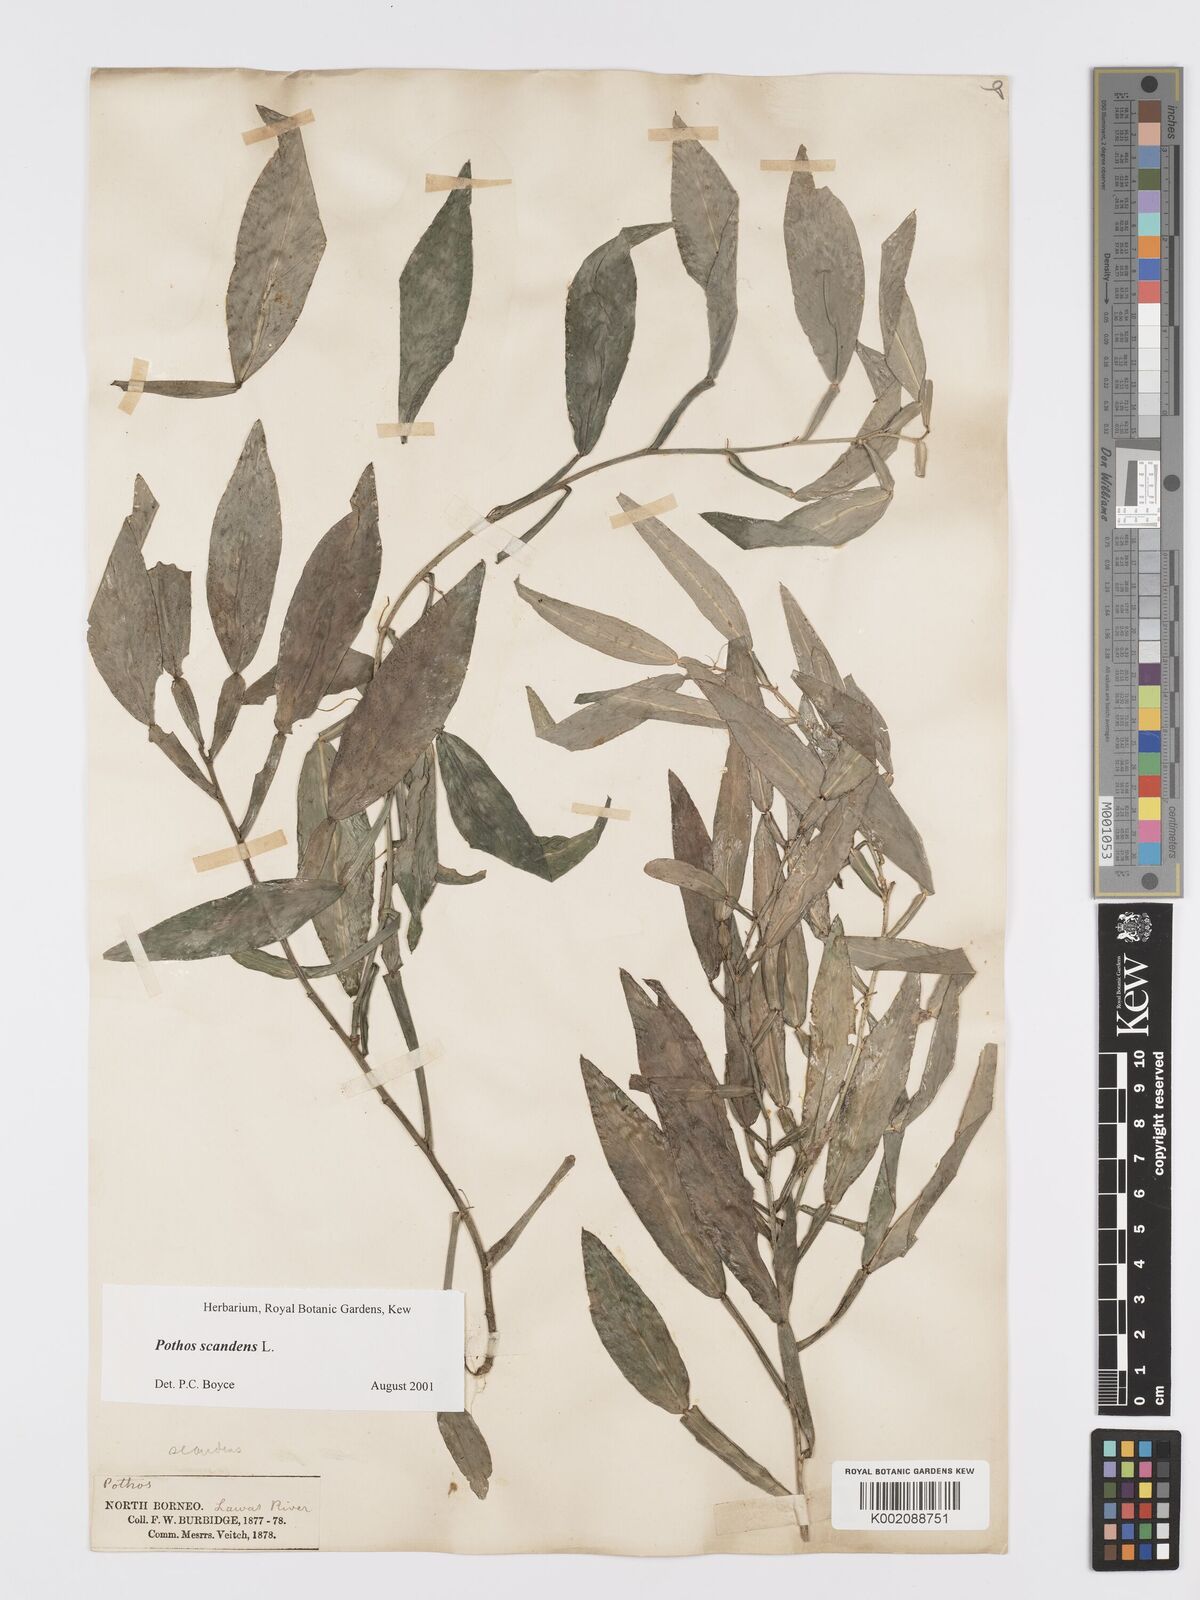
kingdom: Plantae
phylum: Tracheophyta
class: Liliopsida
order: Alismatales
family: Araceae
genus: Pothos
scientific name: Pothos scandens
